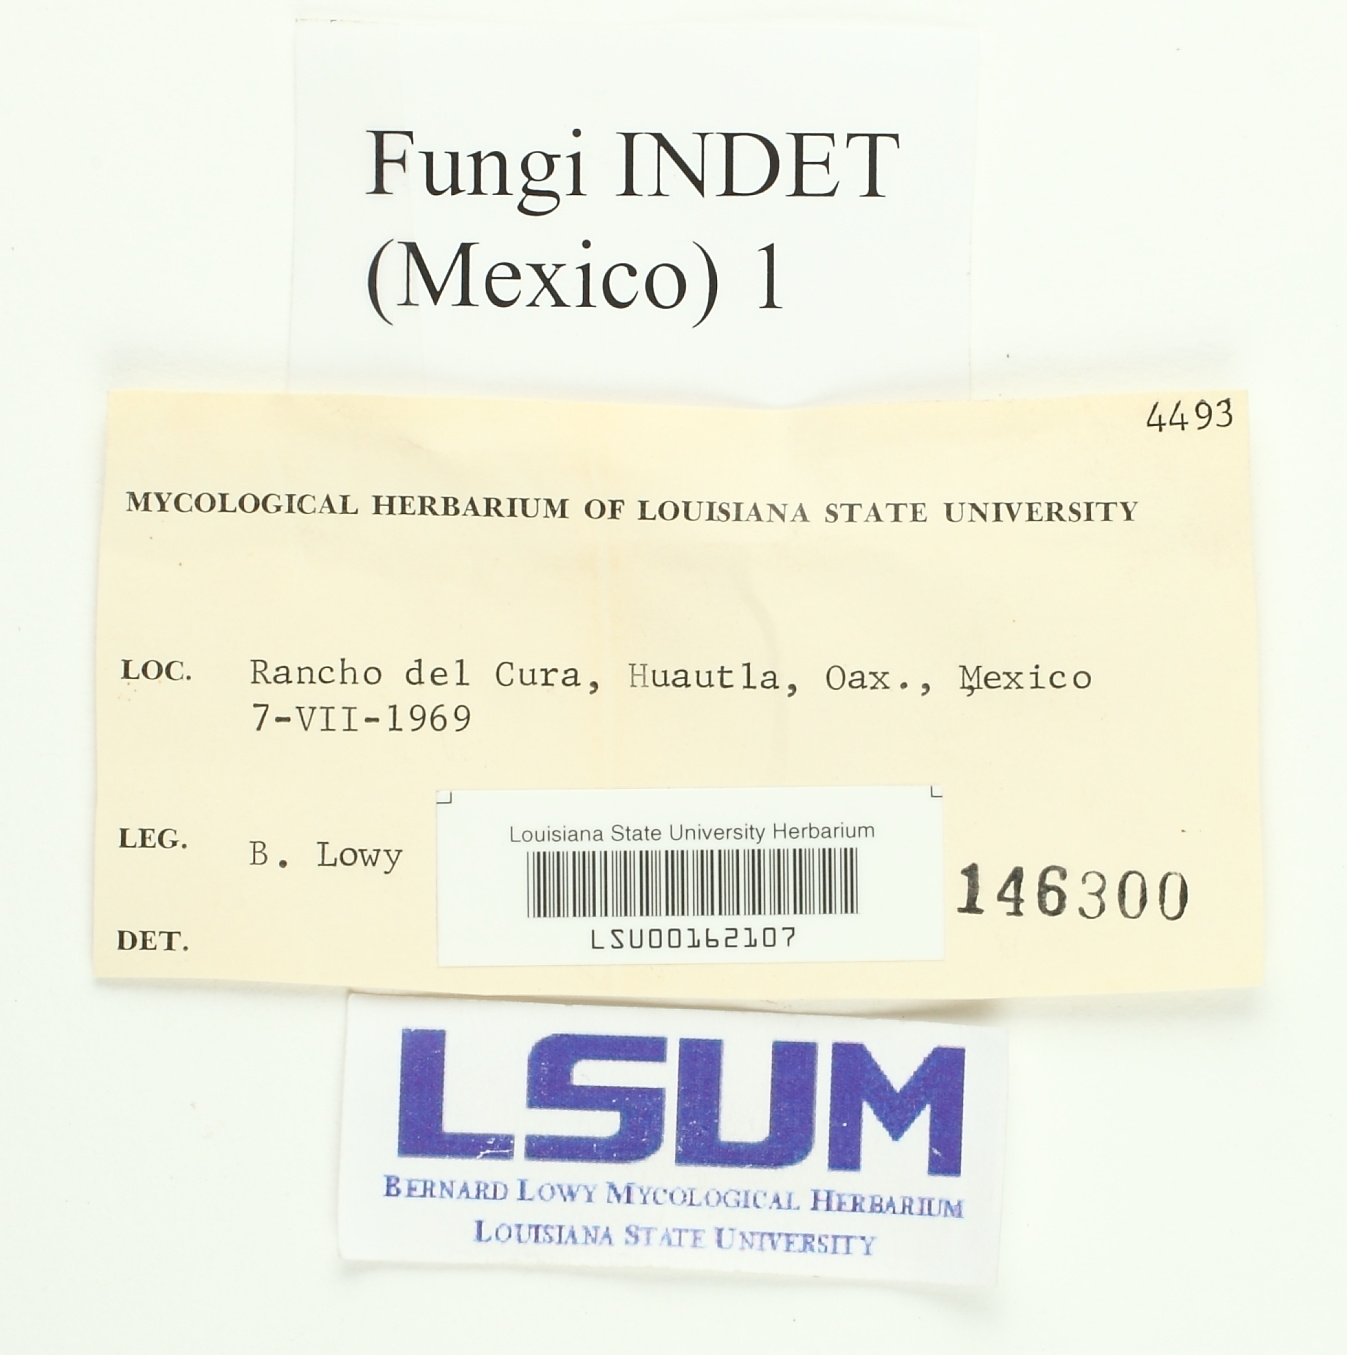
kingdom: Fungi
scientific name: Fungi
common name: Fungi
